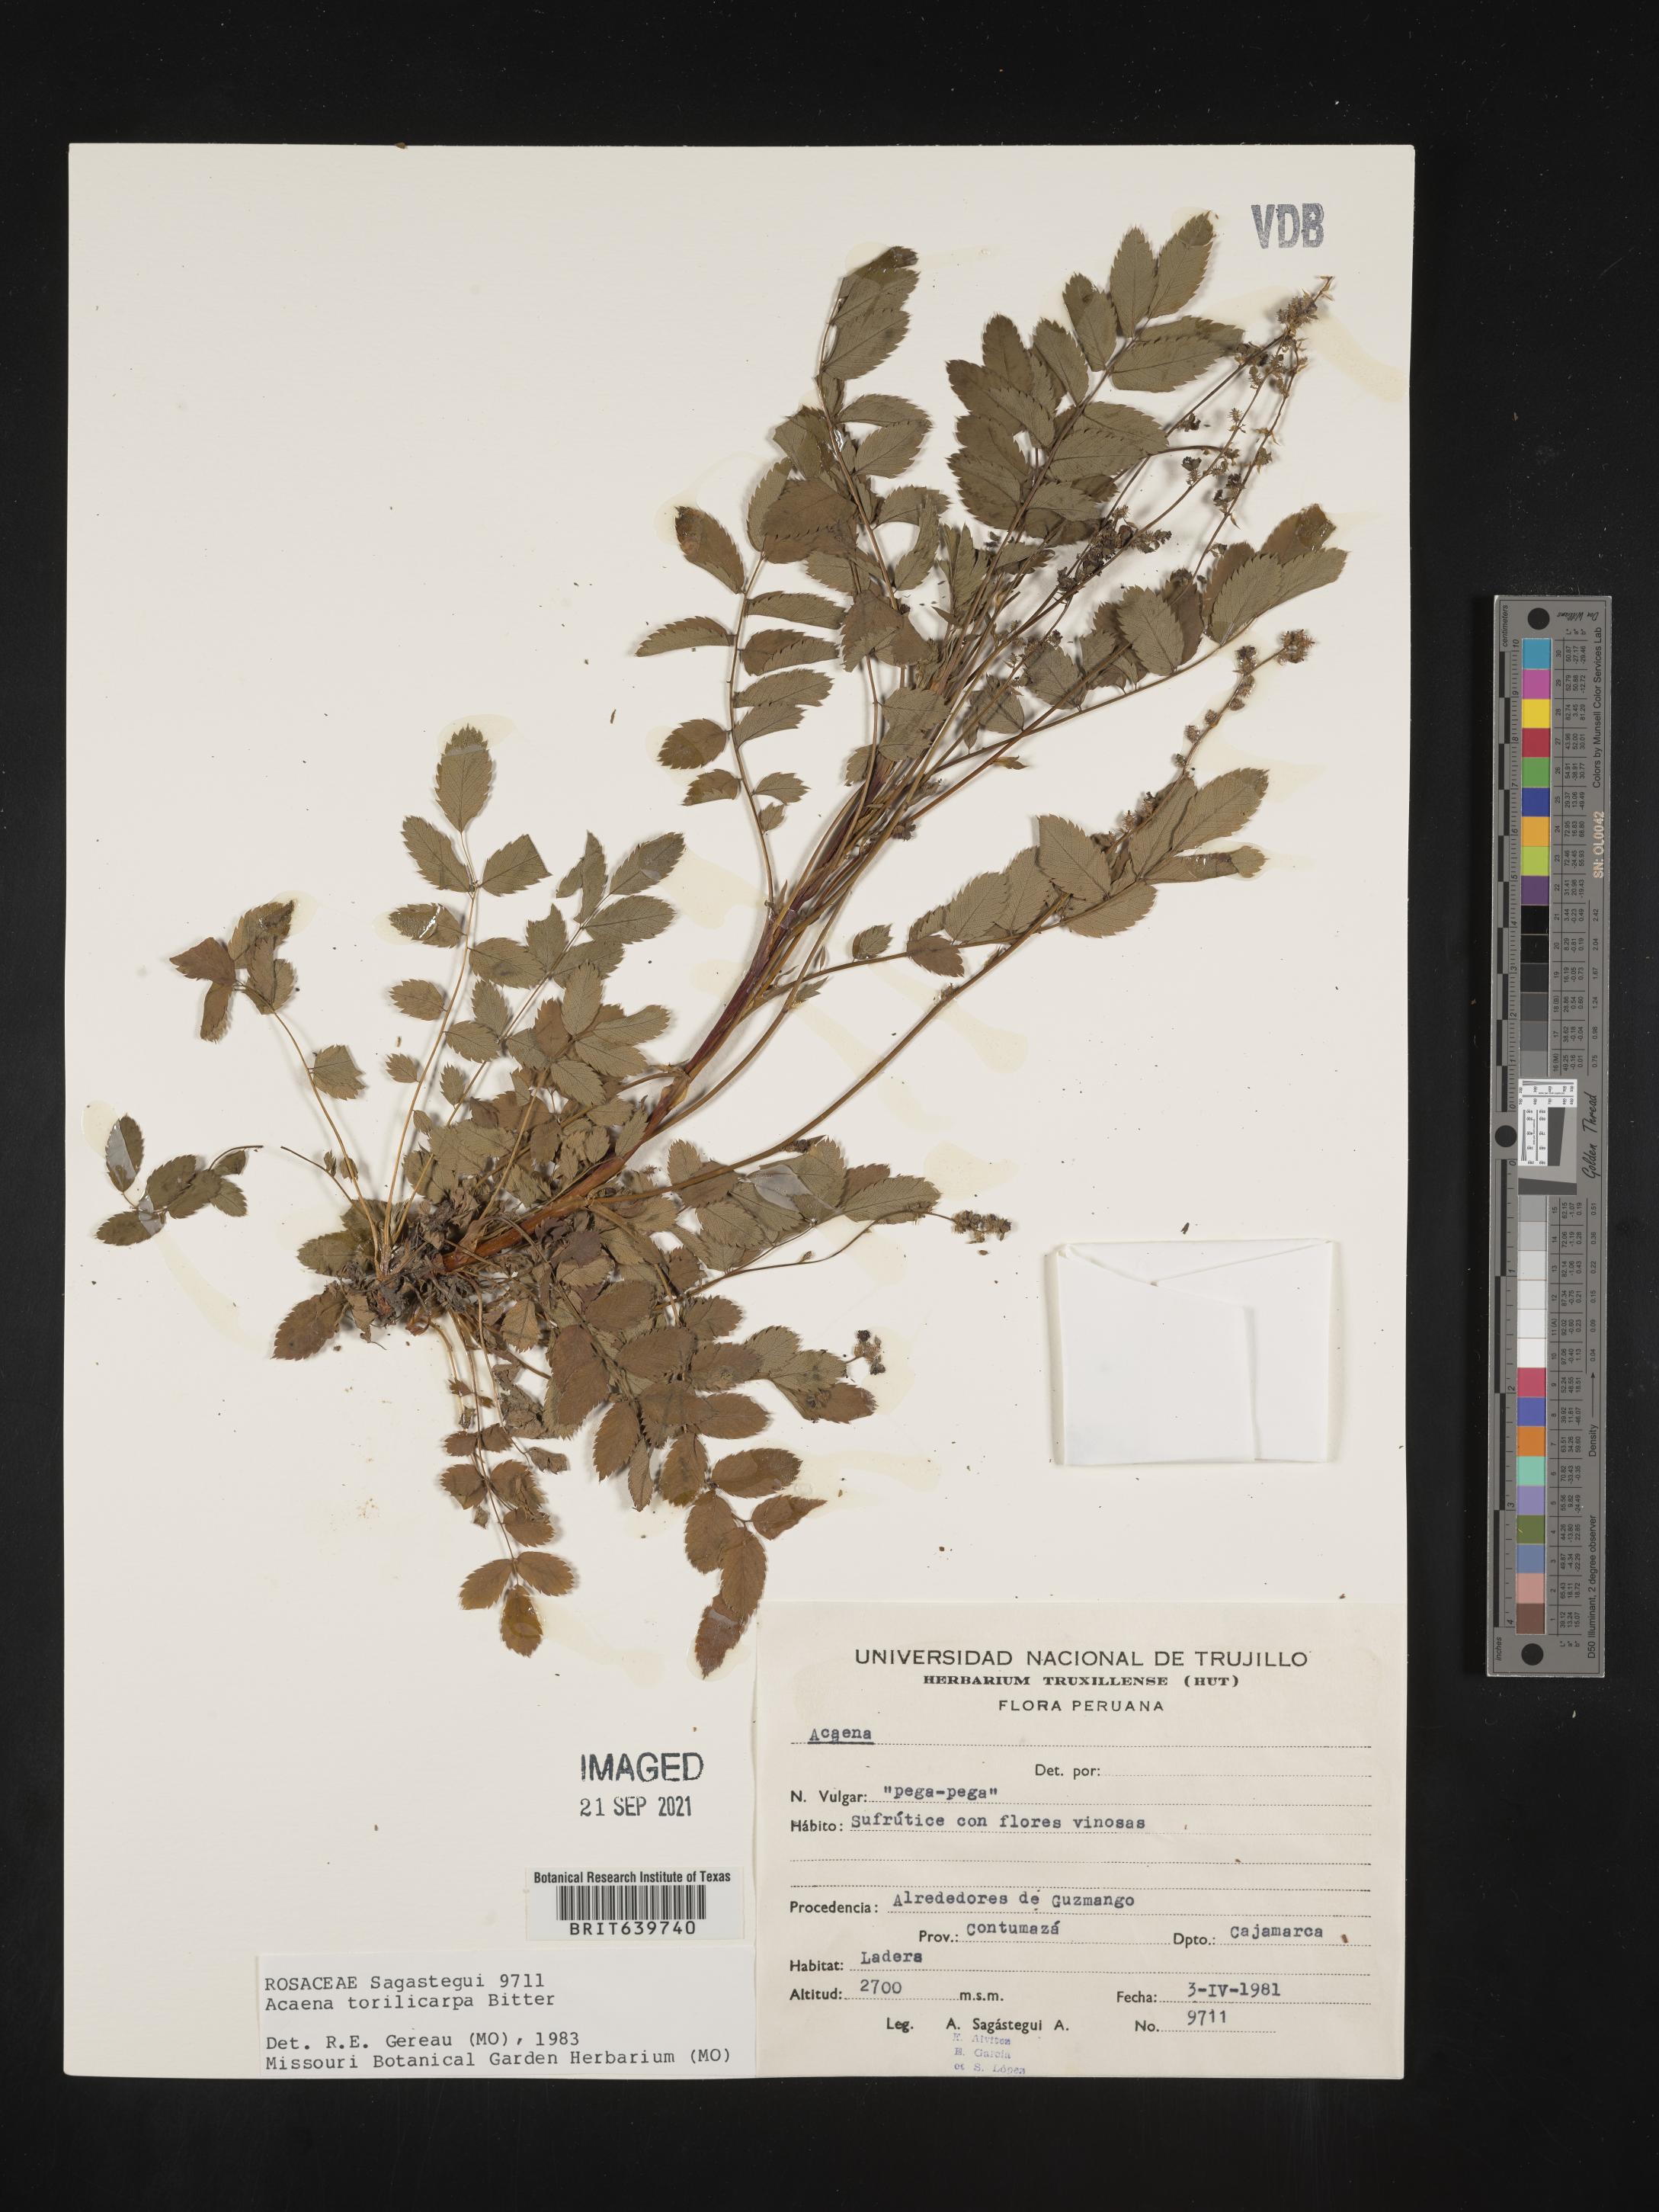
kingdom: Plantae
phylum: Tracheophyta
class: Magnoliopsida
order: Rosales
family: Rosaceae
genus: Acaena
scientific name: Acaena
